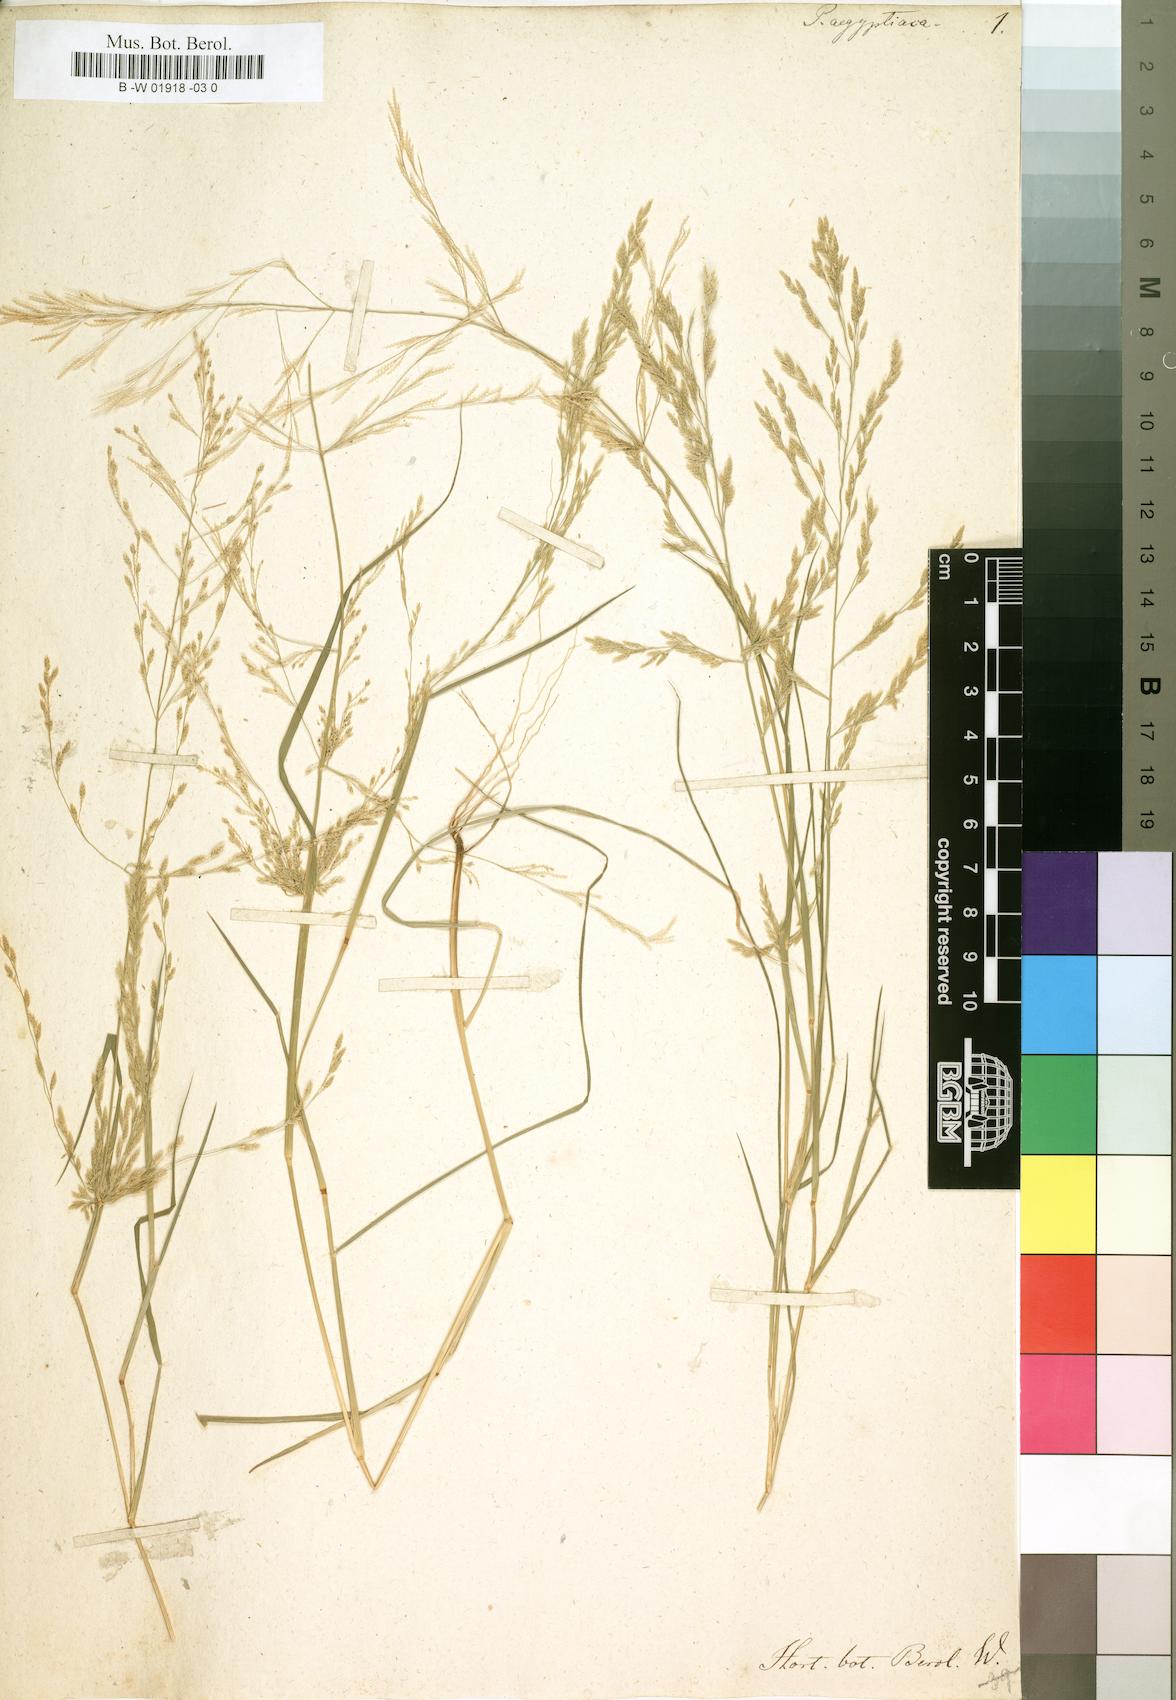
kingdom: Plantae
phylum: Tracheophyta
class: Liliopsida
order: Poales
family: Poaceae
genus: Eragrostis
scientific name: Eragrostis aegyptiaca
